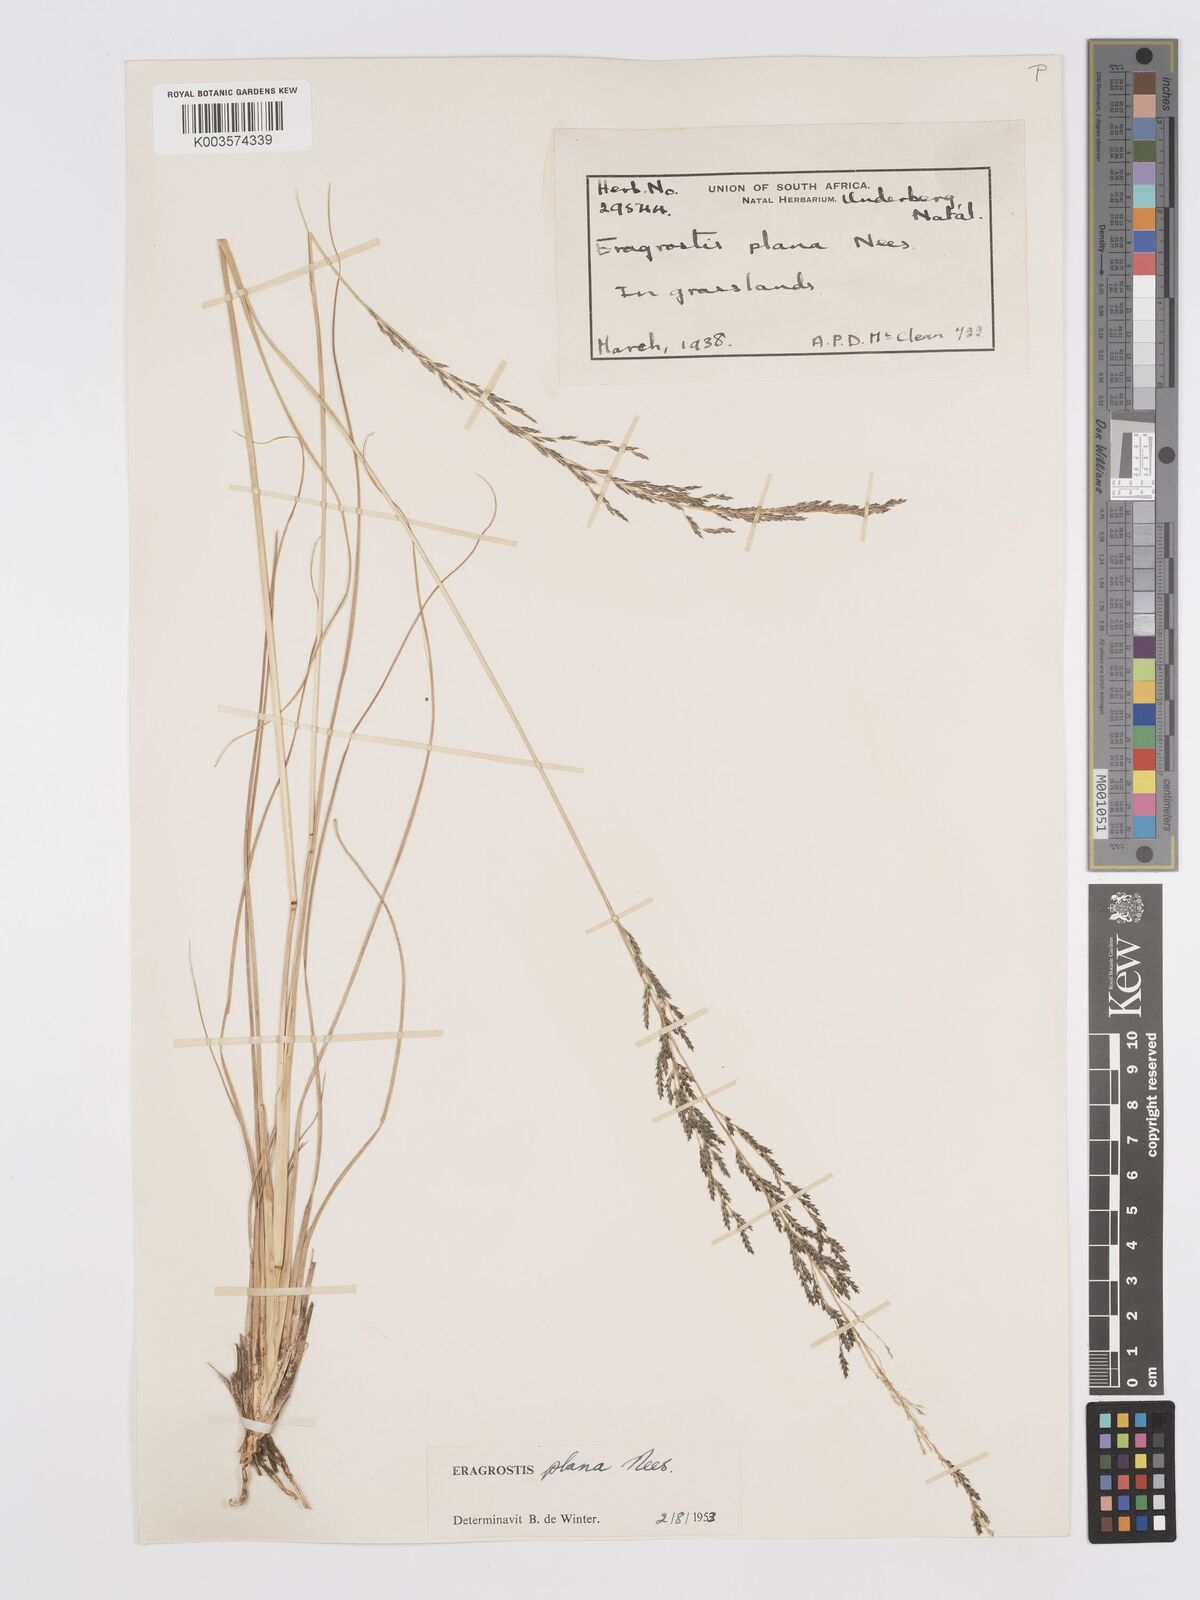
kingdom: Plantae
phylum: Tracheophyta
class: Liliopsida
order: Poales
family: Poaceae
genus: Eragrostis
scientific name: Eragrostis plana
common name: South african lovegrass
